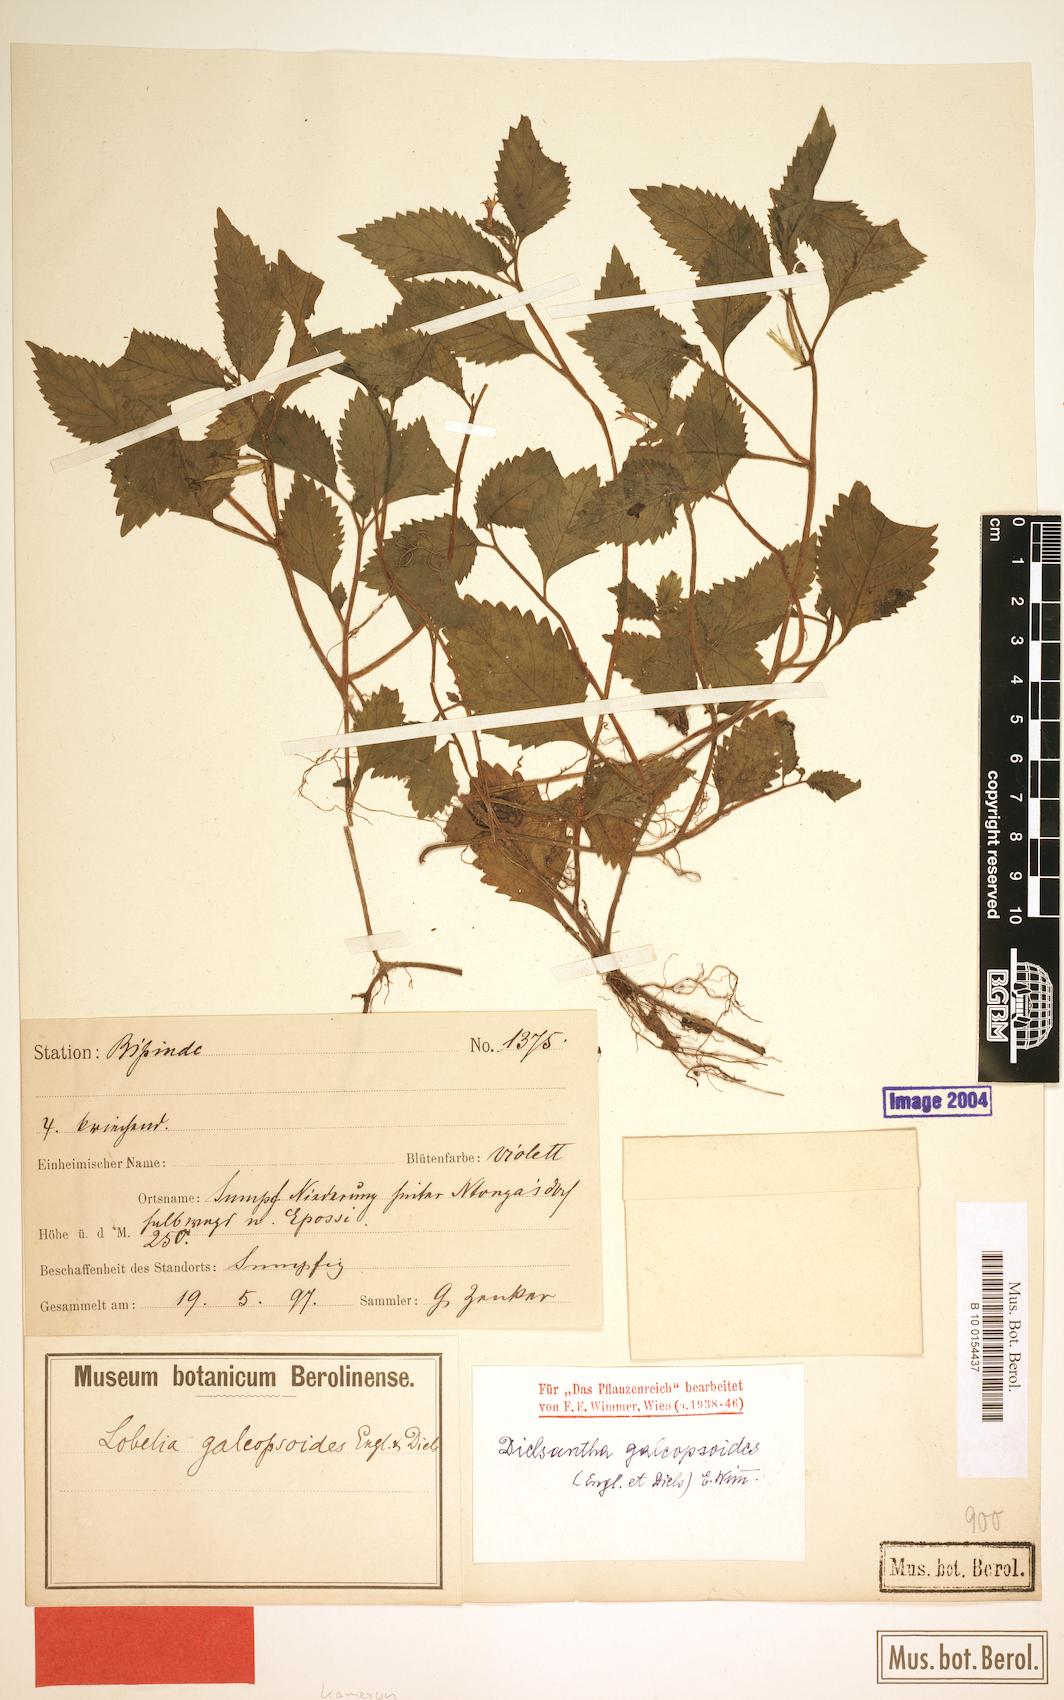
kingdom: Plantae
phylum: Tracheophyta
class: Magnoliopsida
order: Asterales
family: Campanulaceae
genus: Dielsantha
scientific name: Dielsantha galeopsoides
